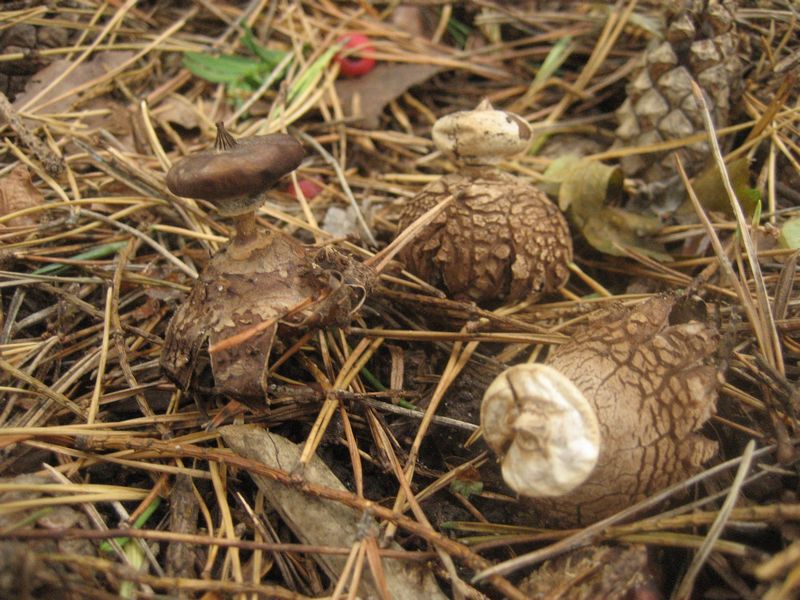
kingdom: Fungi
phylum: Basidiomycota
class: Agaricomycetes
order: Geastrales
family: Geastraceae
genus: Geastrum
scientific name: Geastrum striatum
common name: krave-stjernebold
